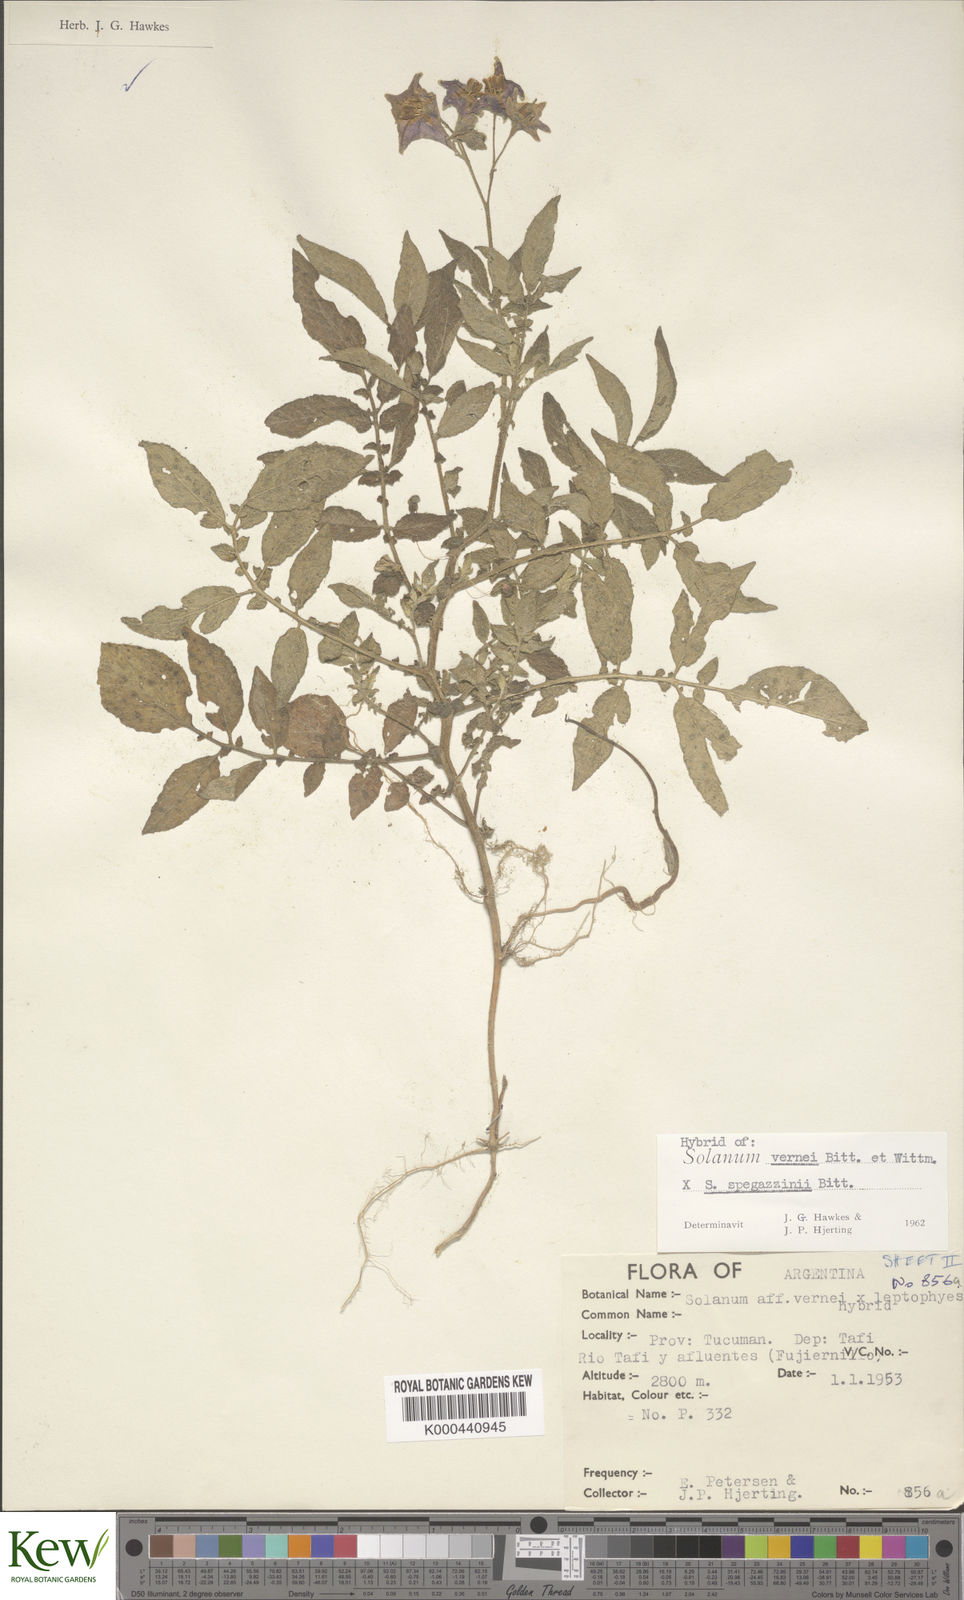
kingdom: Plantae
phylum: Tracheophyta
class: Magnoliopsida
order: Solanales
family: Solanaceae
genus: Solanum
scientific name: Solanum vernei
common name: Purple potato
